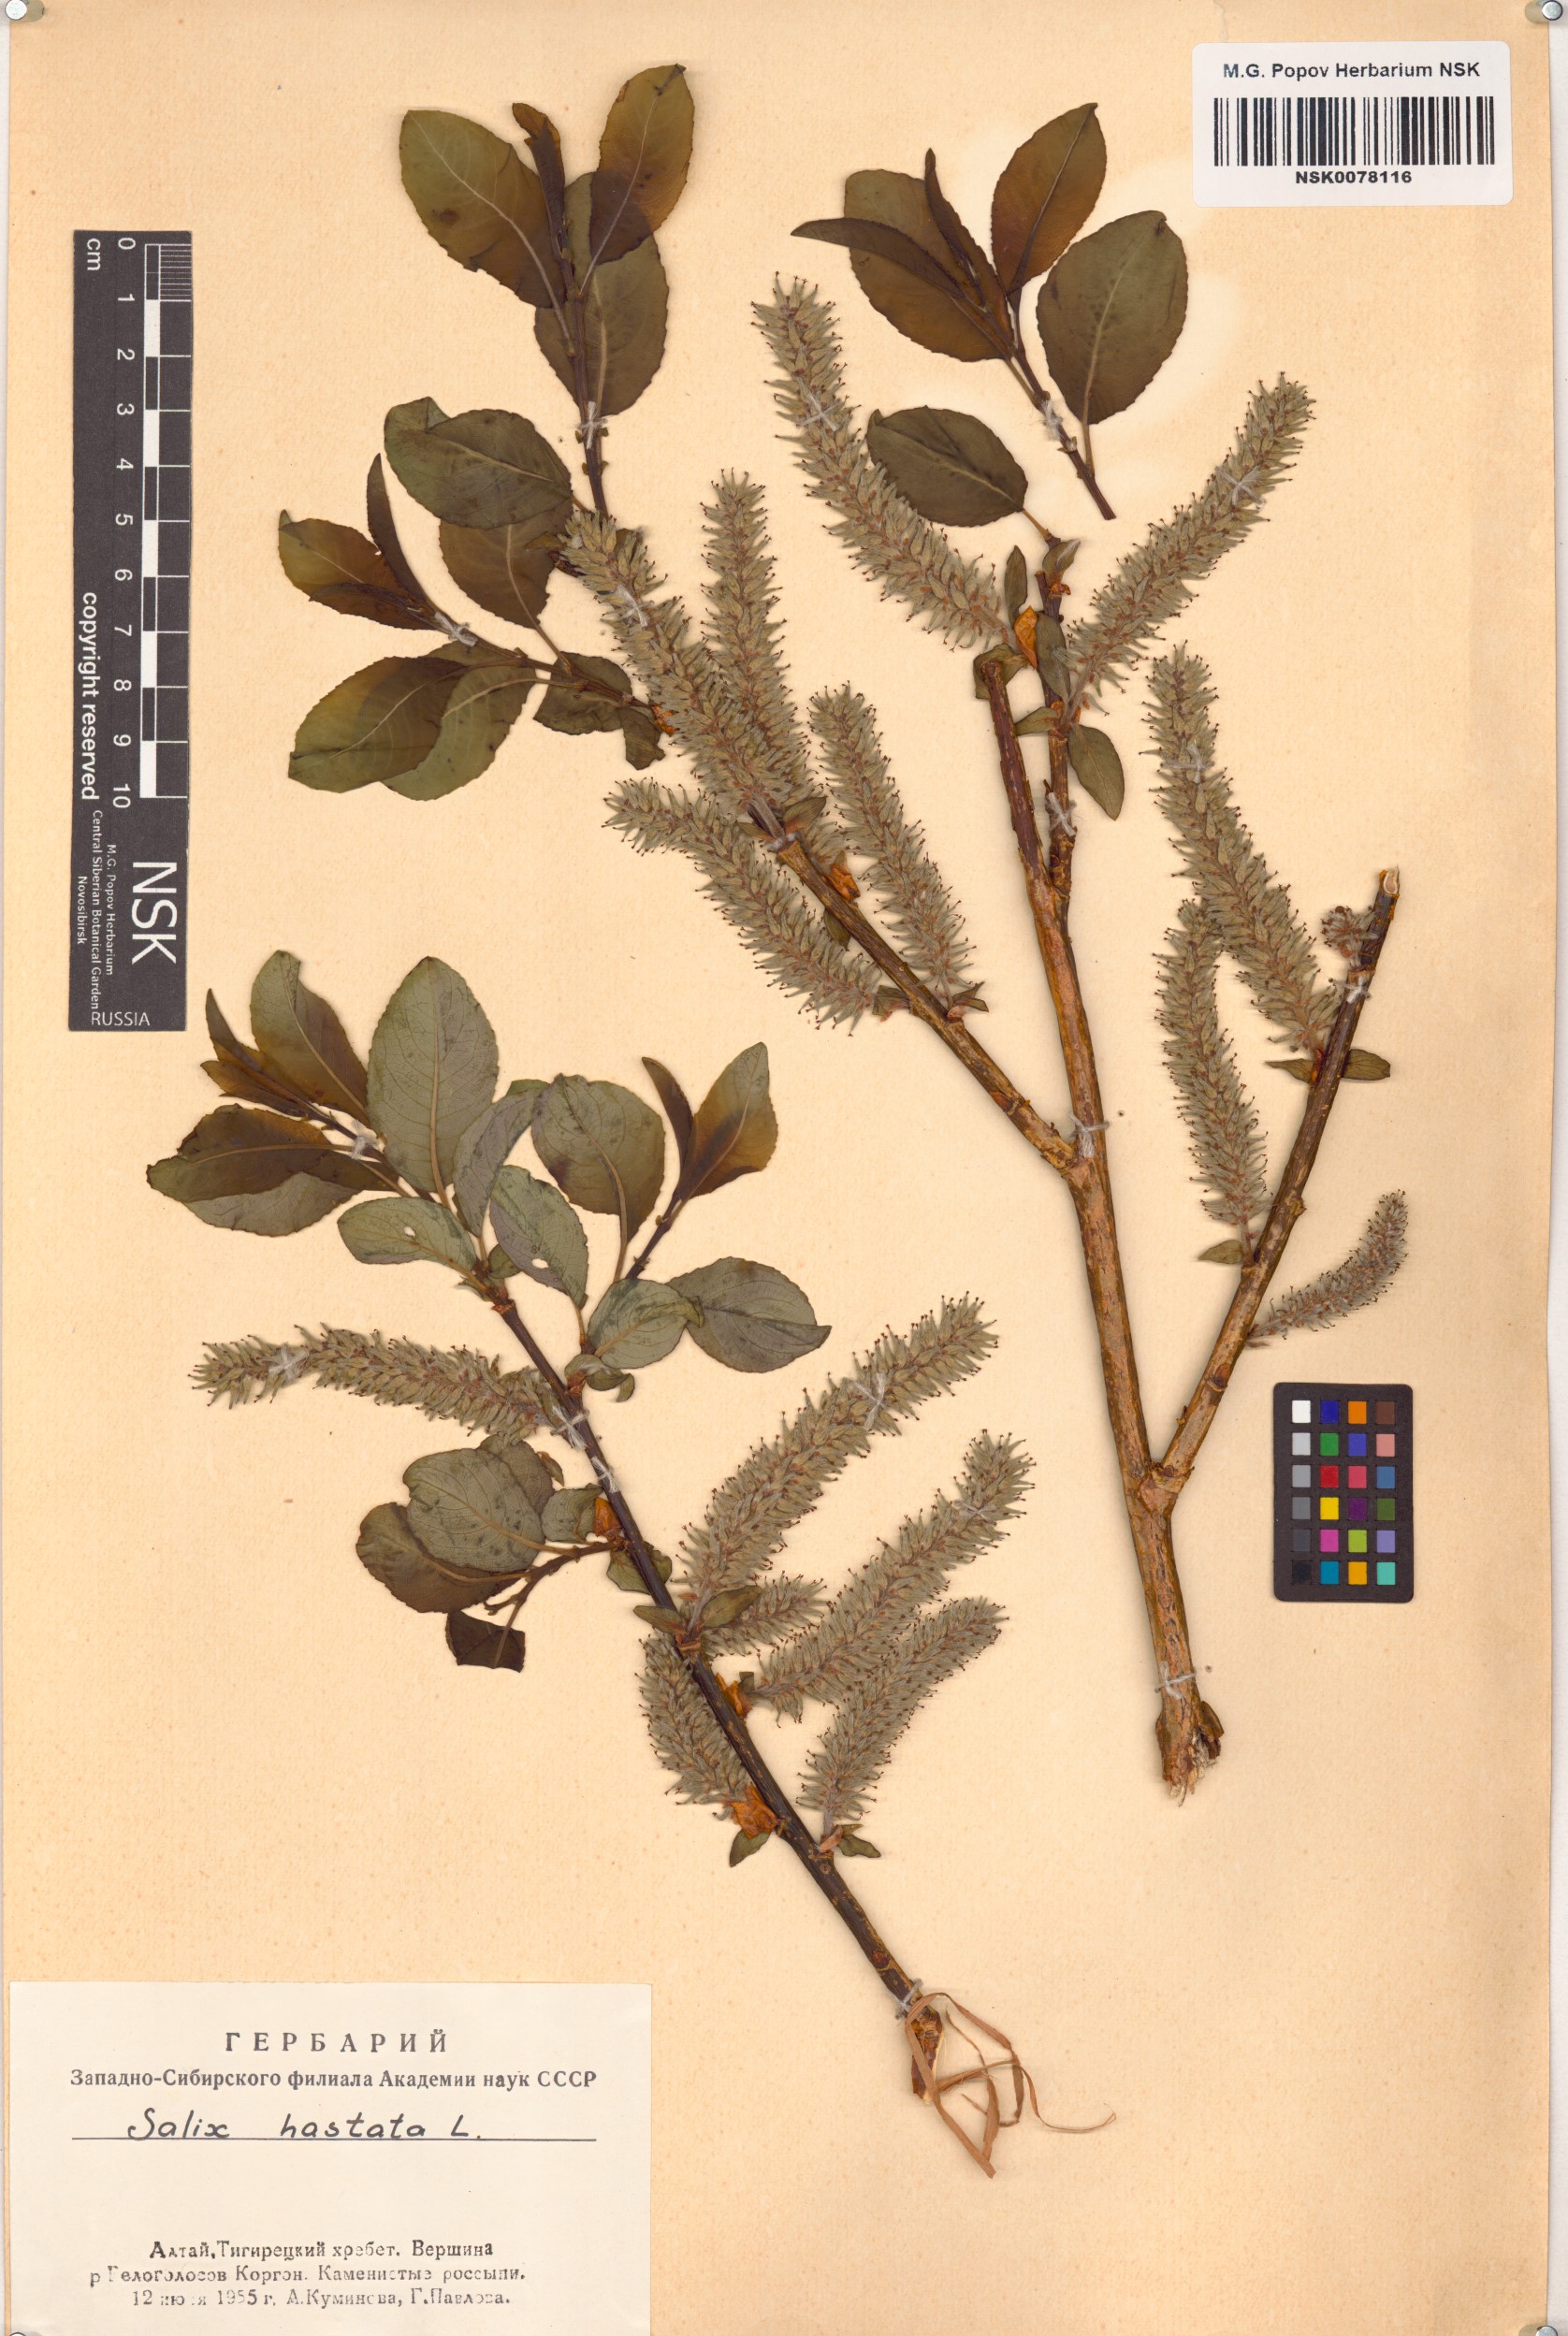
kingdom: Plantae
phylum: Tracheophyta
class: Magnoliopsida
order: Malpighiales
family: Salicaceae
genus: Salix
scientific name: Salix hastata
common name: Halberd willow
